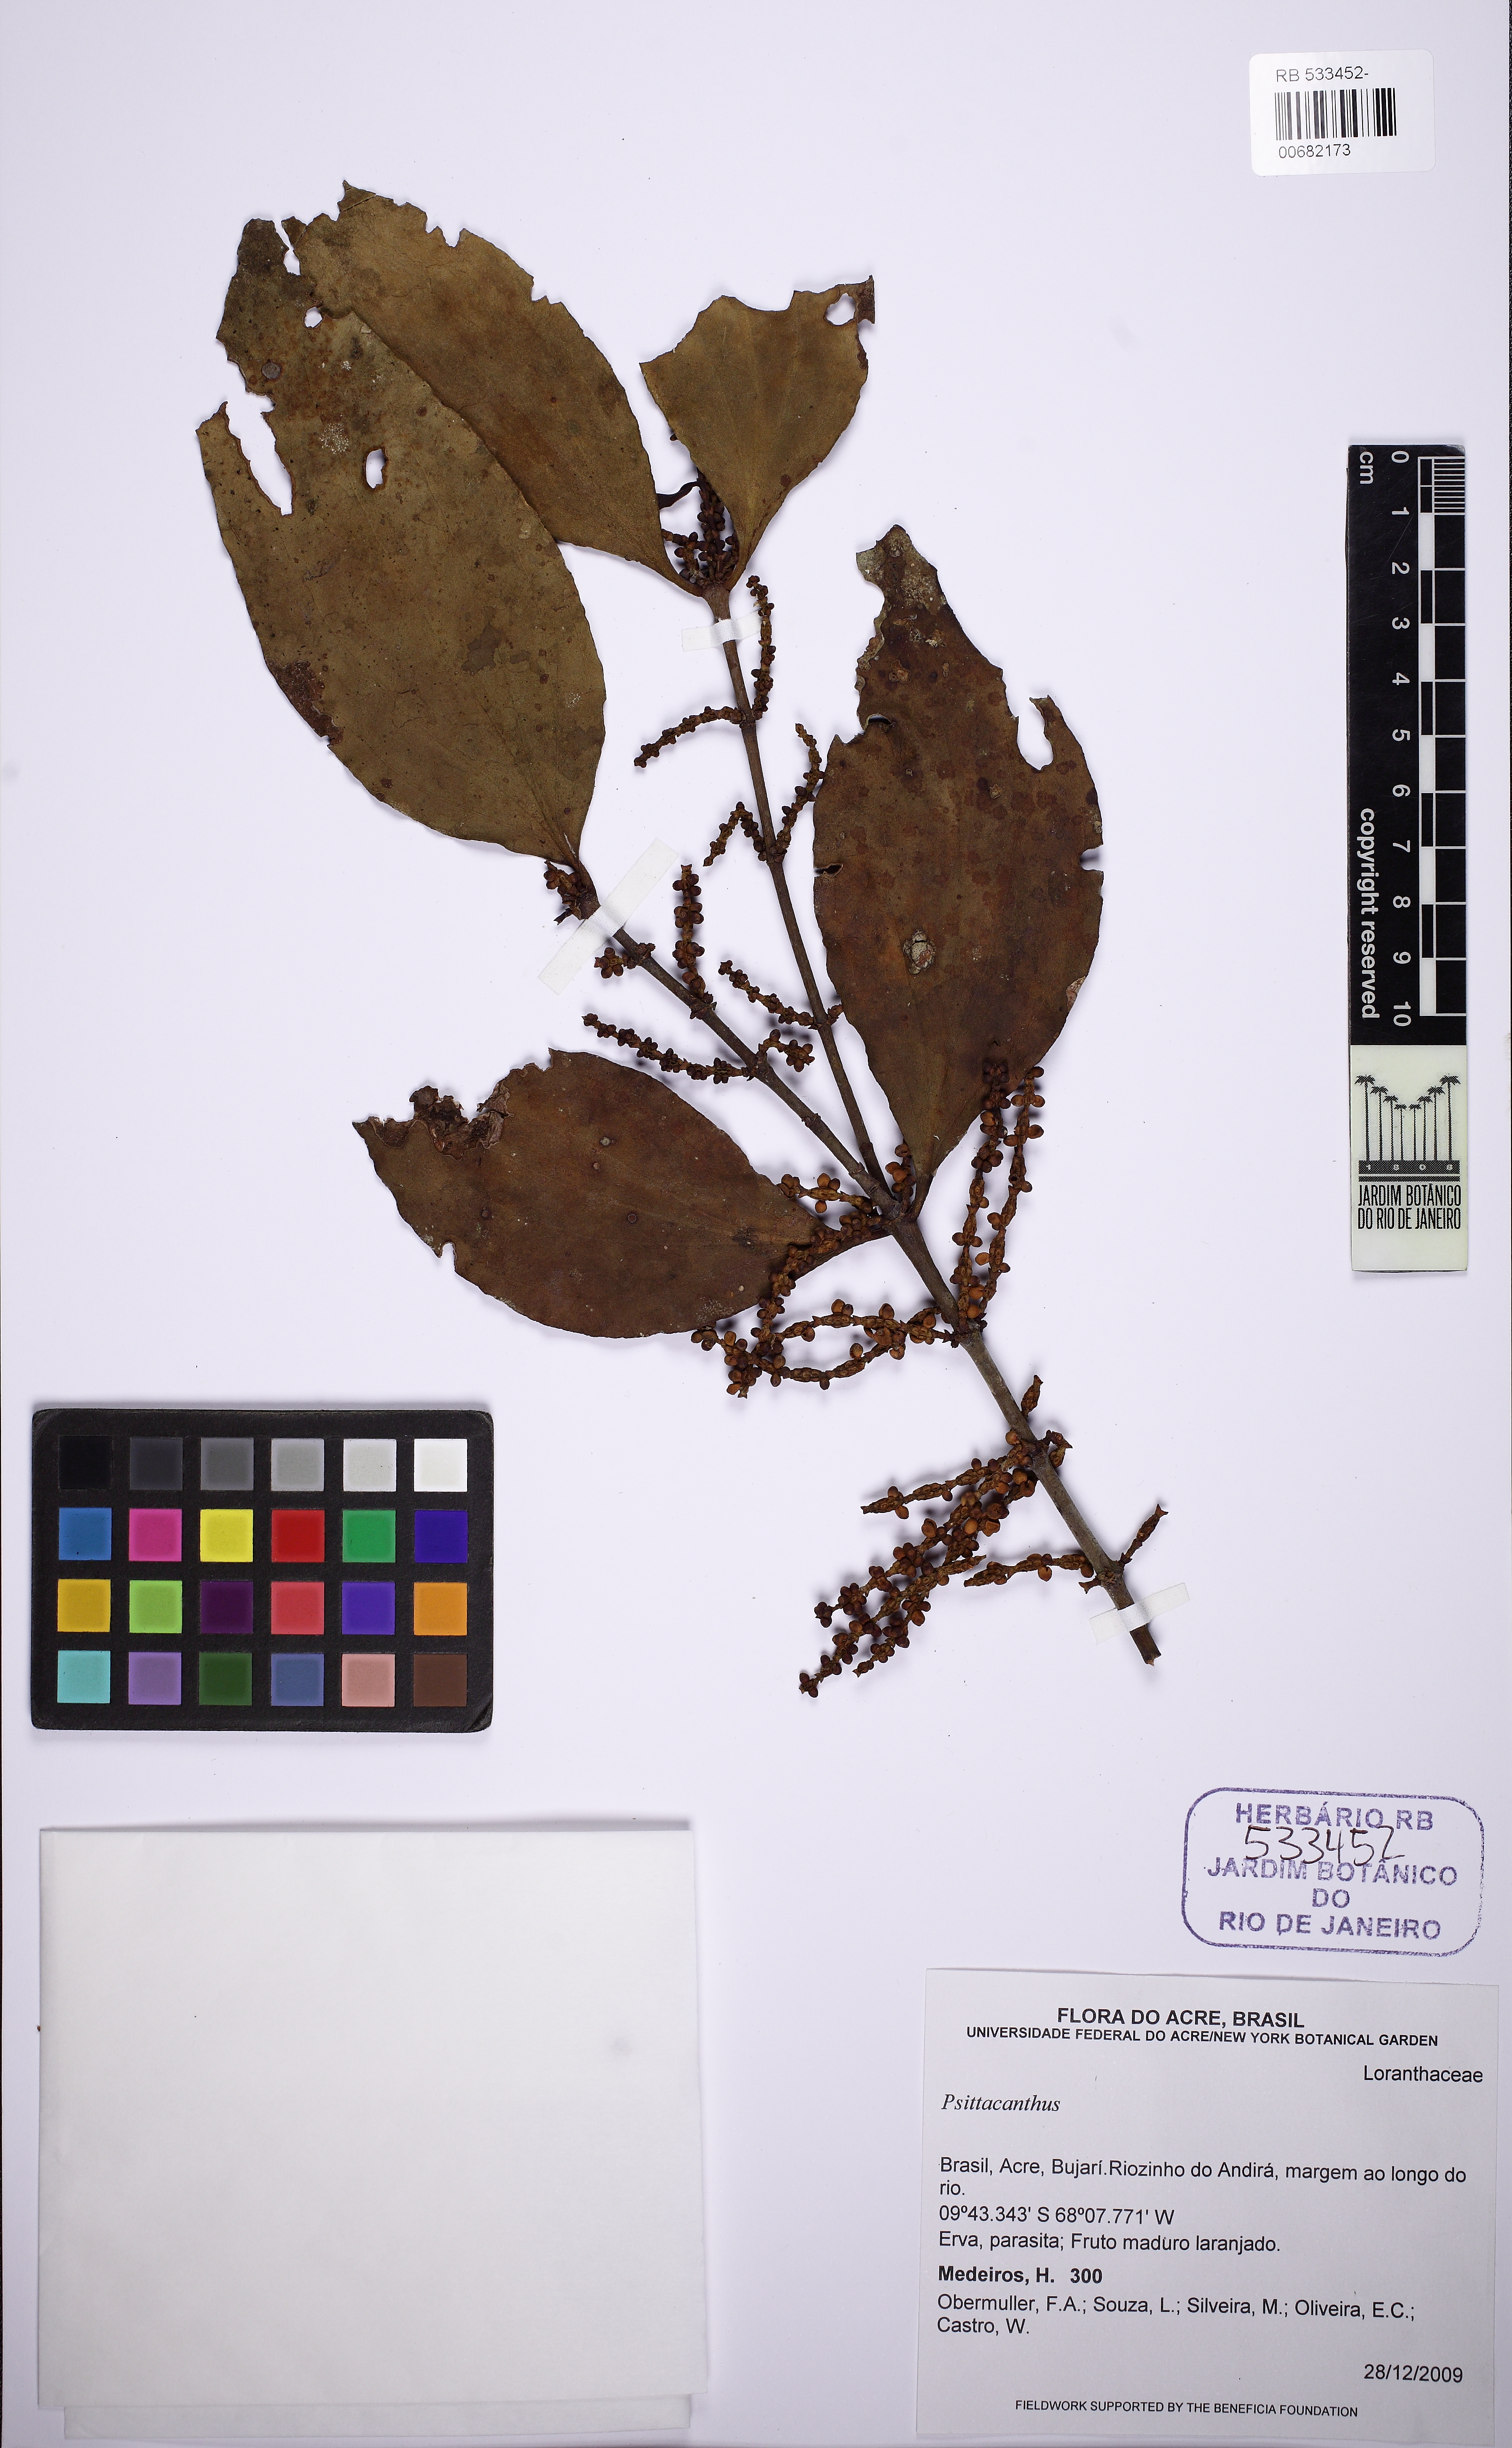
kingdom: Plantae
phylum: Tracheophyta
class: Magnoliopsida
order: Santalales
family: Loranthaceae
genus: Psittacanthus
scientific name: Psittacanthus
